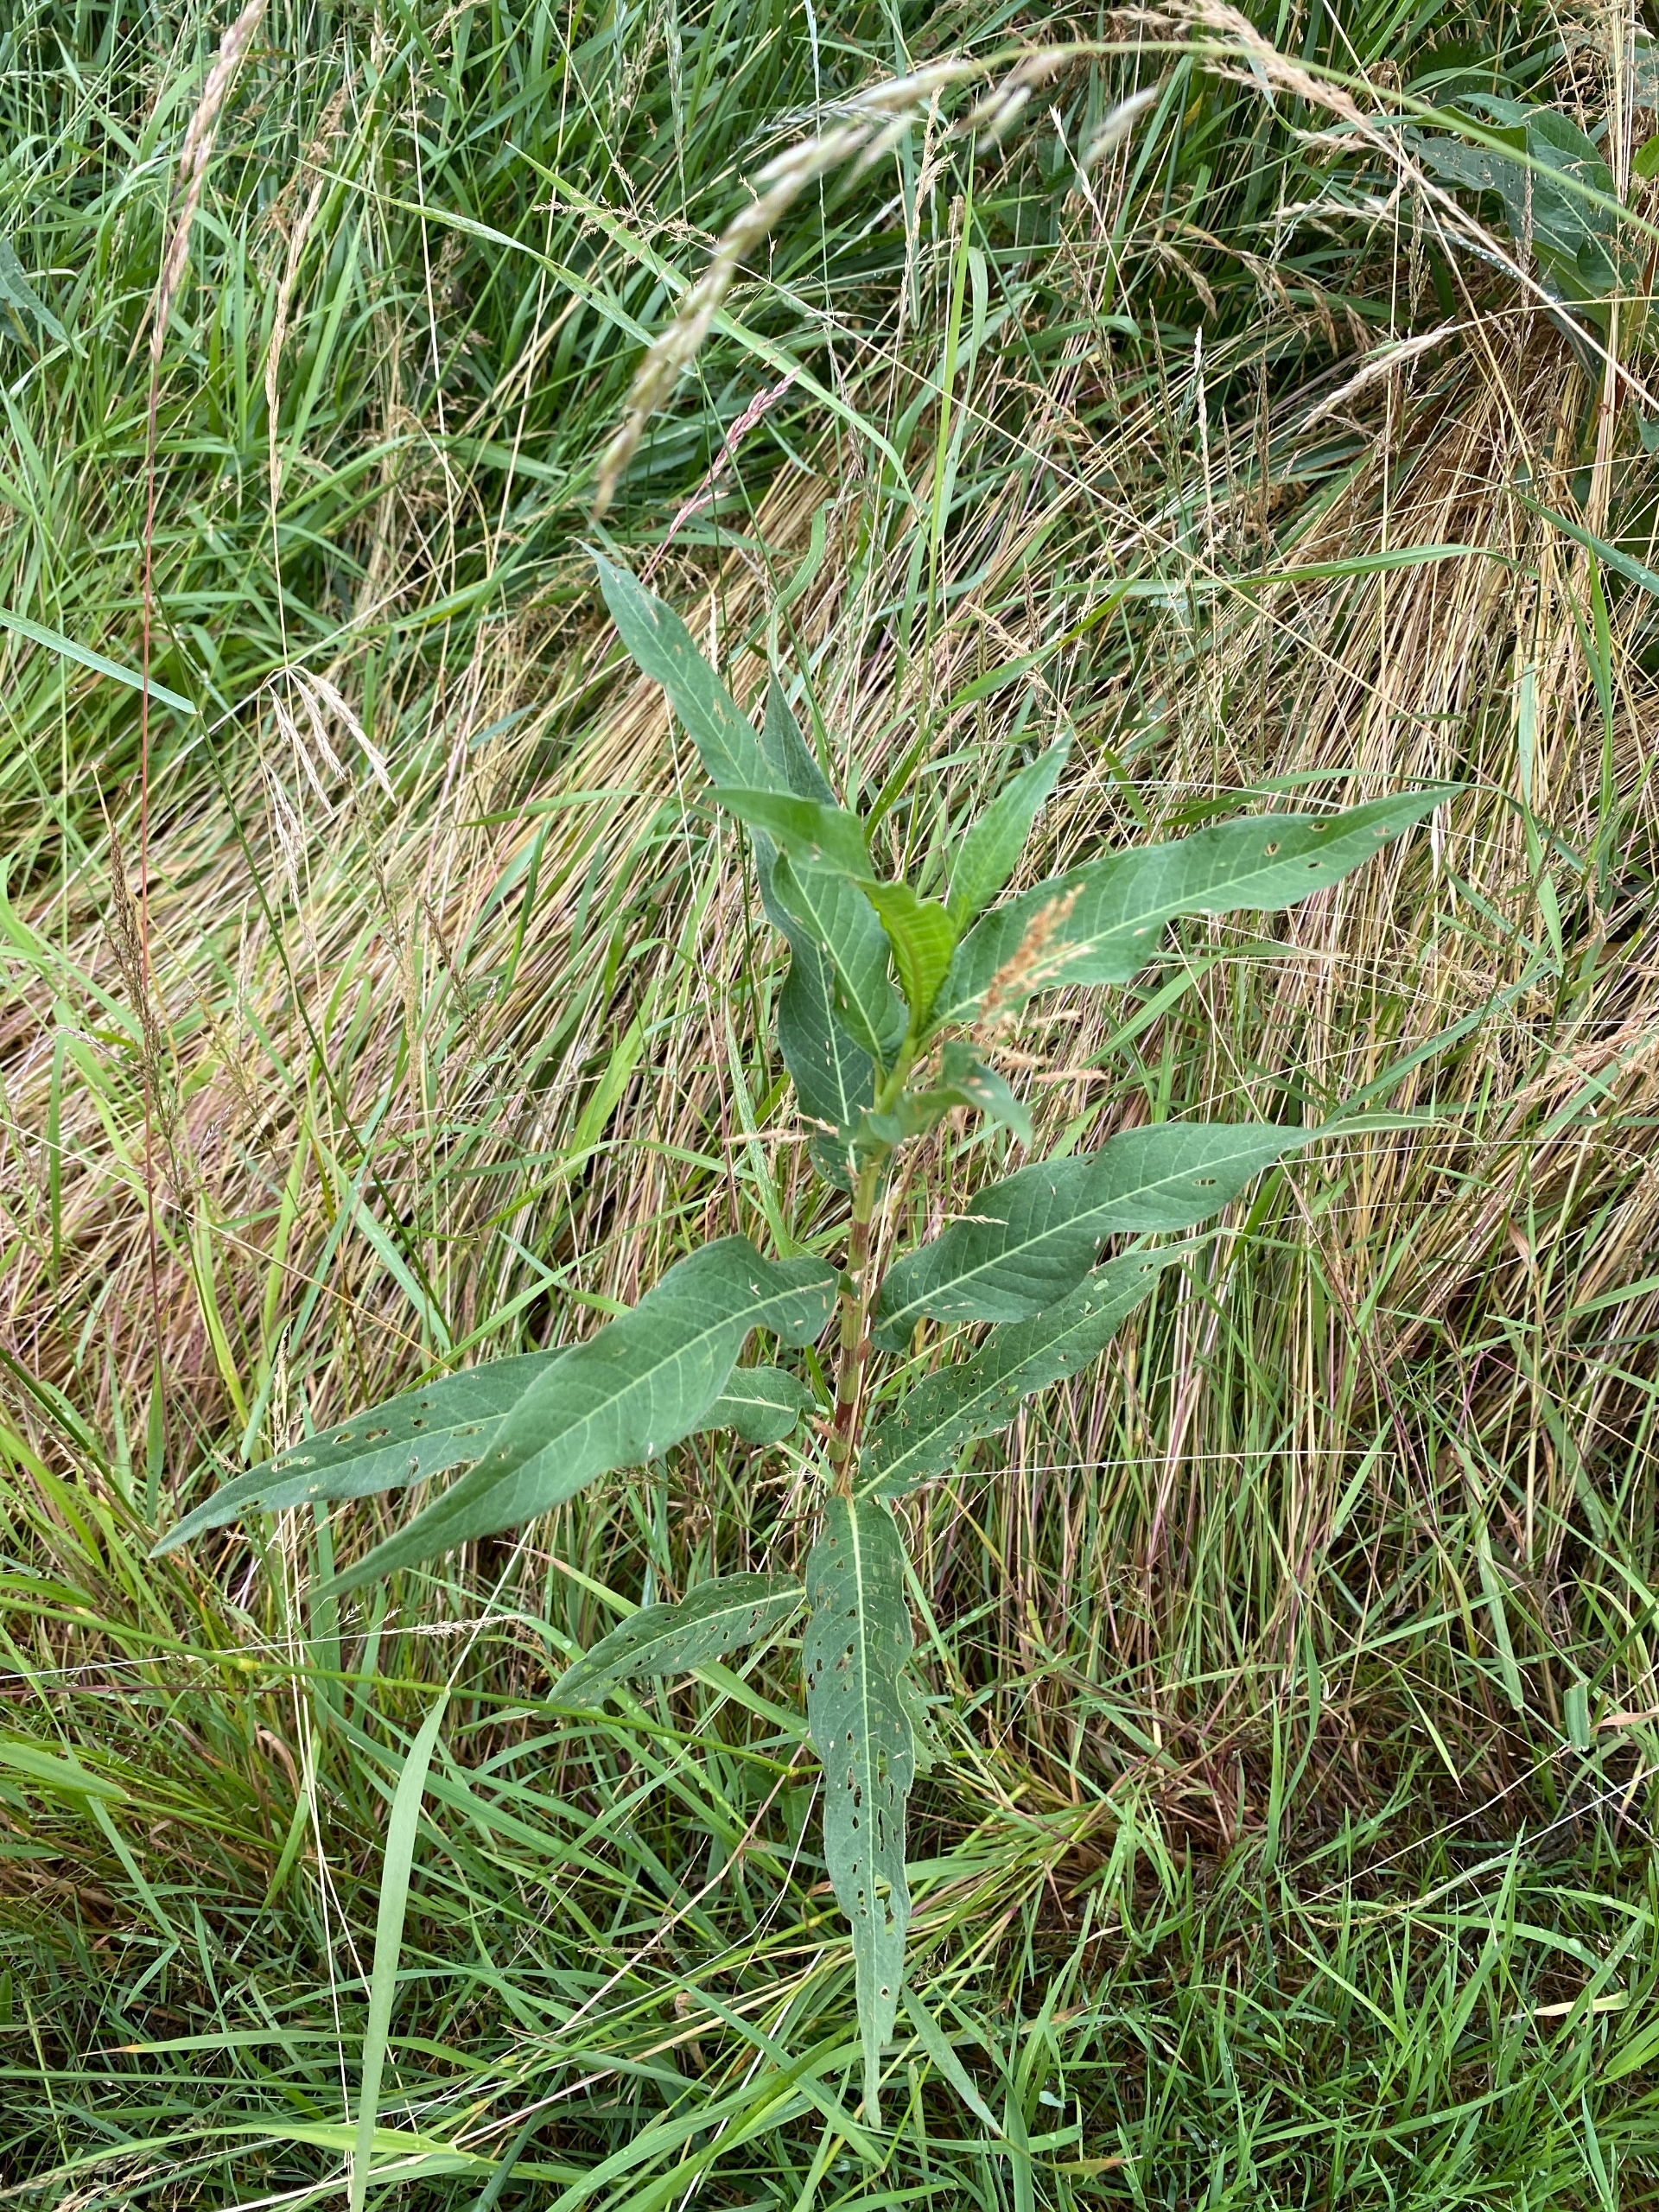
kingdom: Plantae
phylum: Tracheophyta
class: Magnoliopsida
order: Caryophyllales
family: Polygonaceae
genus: Persicaria
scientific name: Persicaria amphibia
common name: Vand-pileurt
